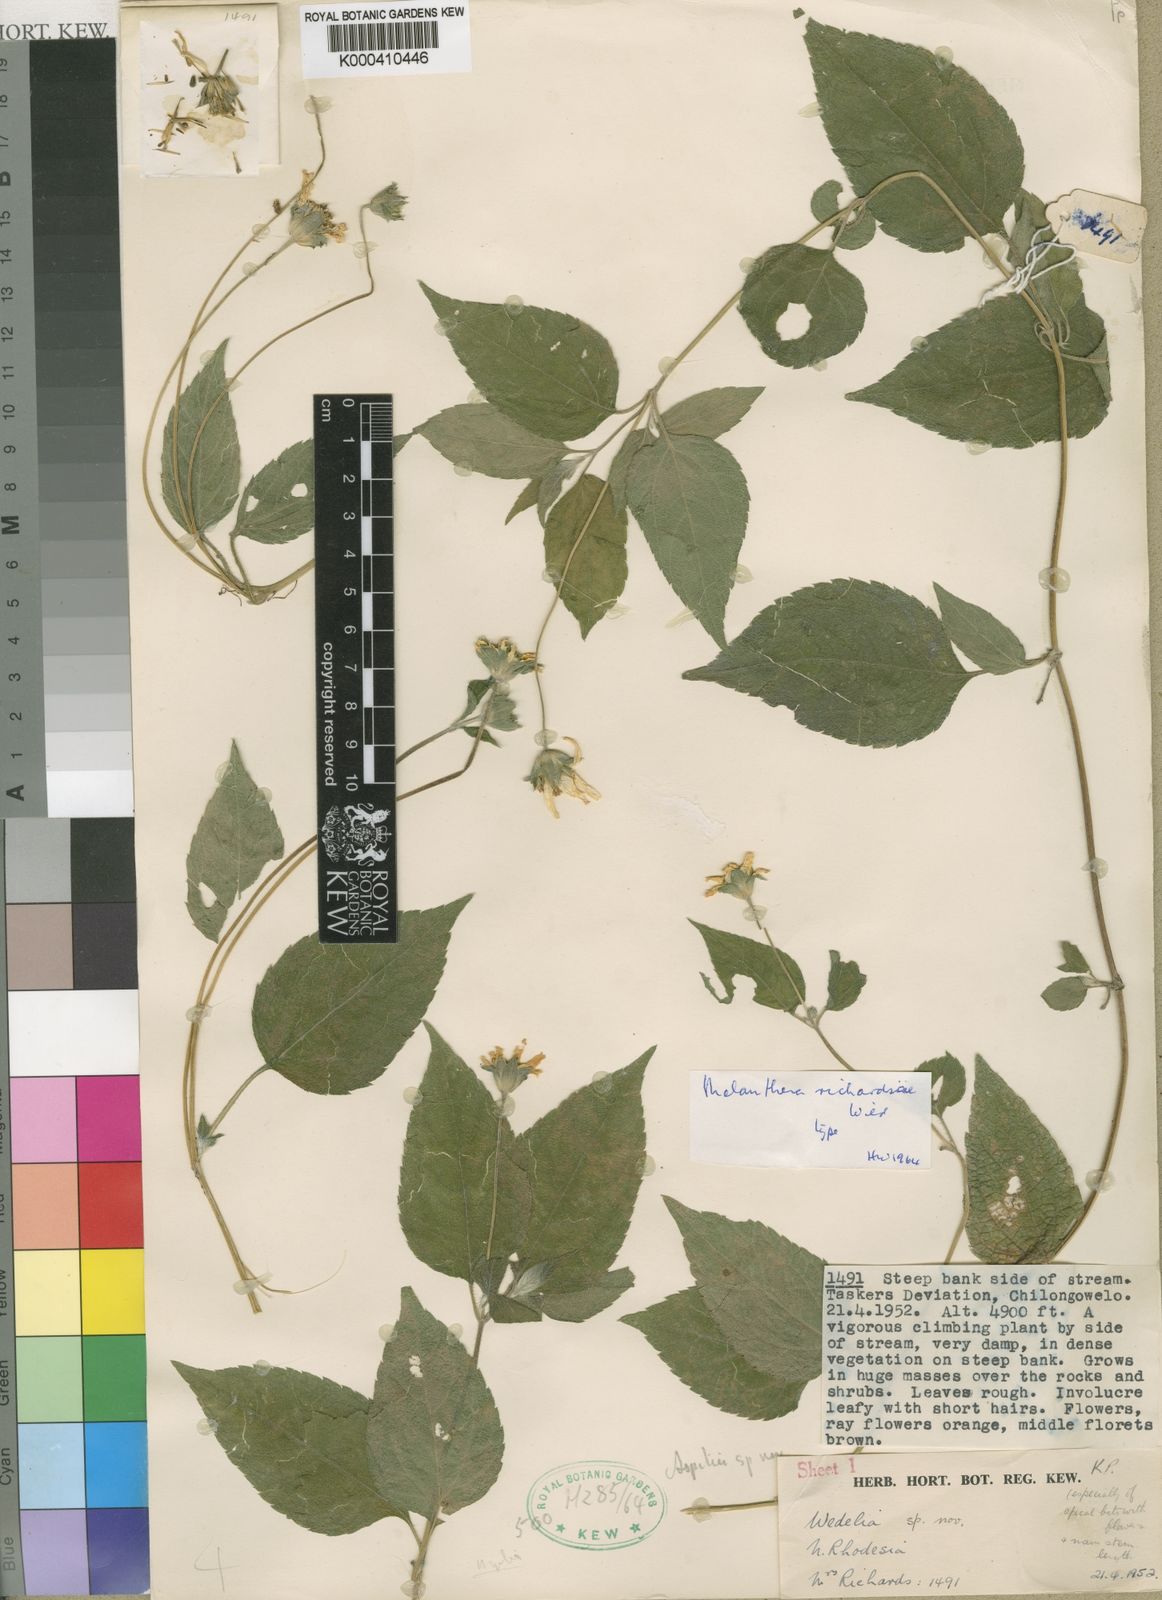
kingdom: Plantae
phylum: Tracheophyta
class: Magnoliopsida
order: Asterales
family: Asteraceae
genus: Lipotriche
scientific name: Lipotriche richardsiae
